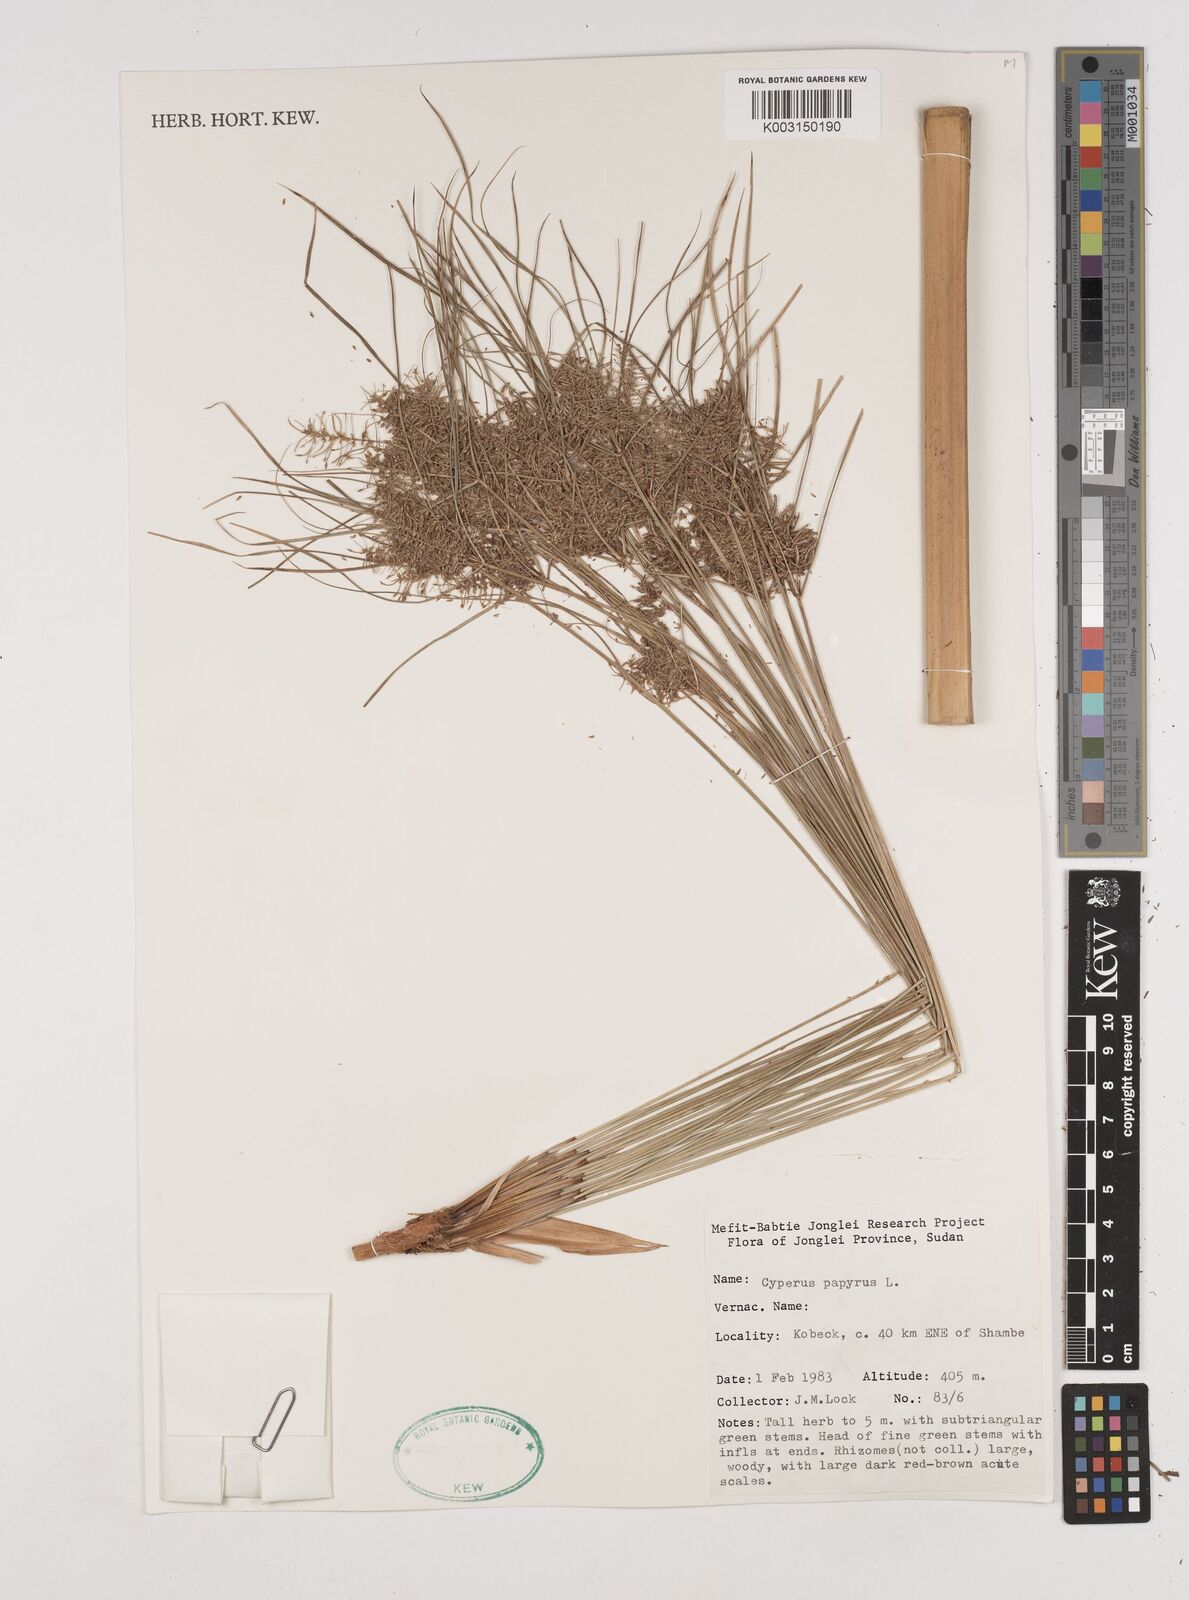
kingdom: Plantae
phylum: Tracheophyta
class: Liliopsida
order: Poales
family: Cyperaceae
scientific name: Cyperaceae
